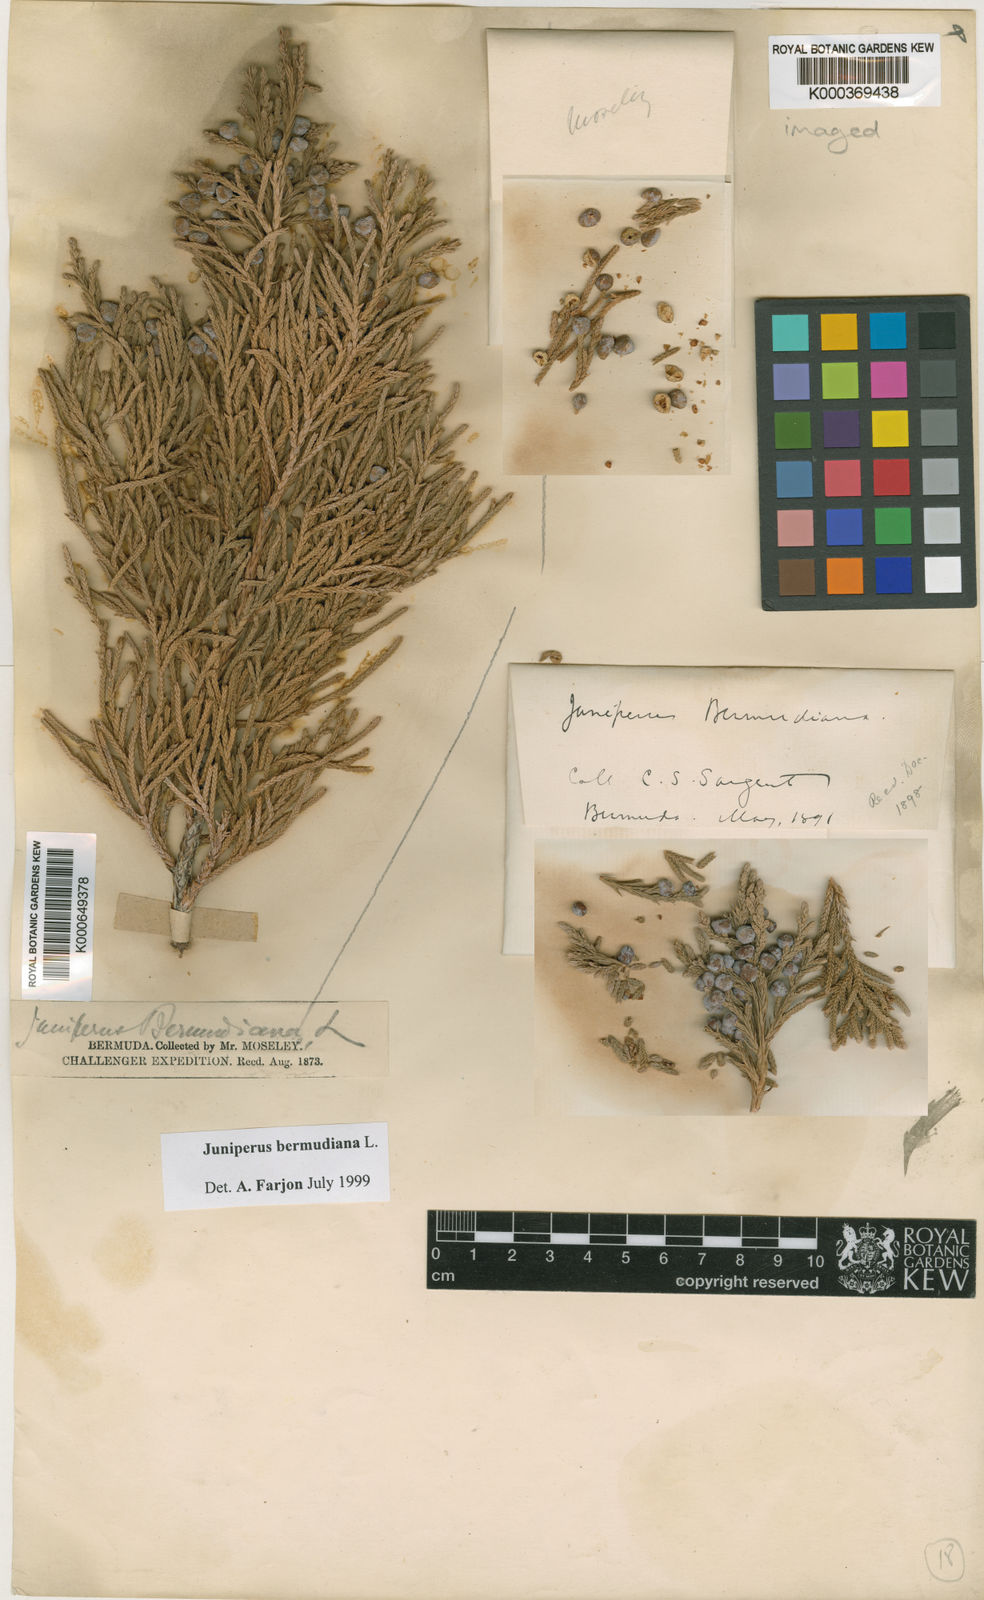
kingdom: Plantae
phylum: Tracheophyta
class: Pinopsida
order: Pinales
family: Cupressaceae
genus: Juniperus
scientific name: Juniperus bermudiana
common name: Bermuda juniper
